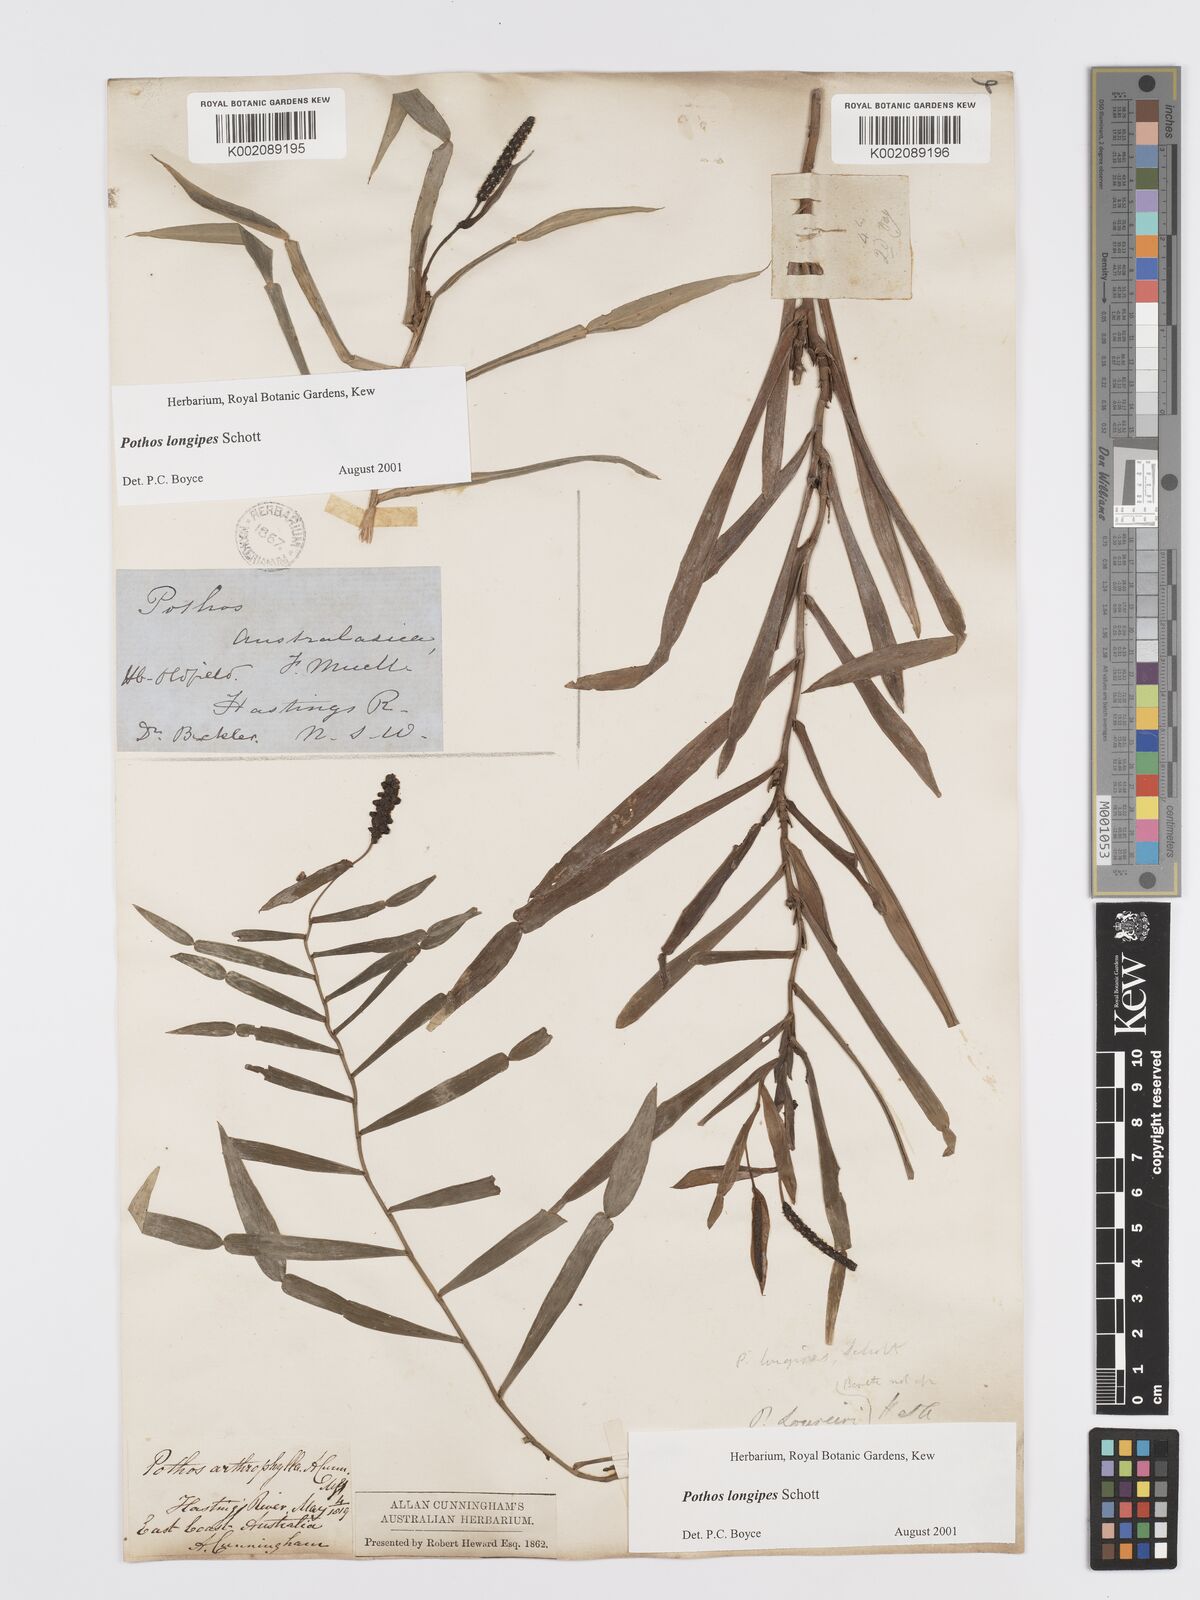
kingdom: Plantae
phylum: Tracheophyta
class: Liliopsida
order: Alismatales
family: Araceae
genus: Pothos
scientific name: Pothos longipes
